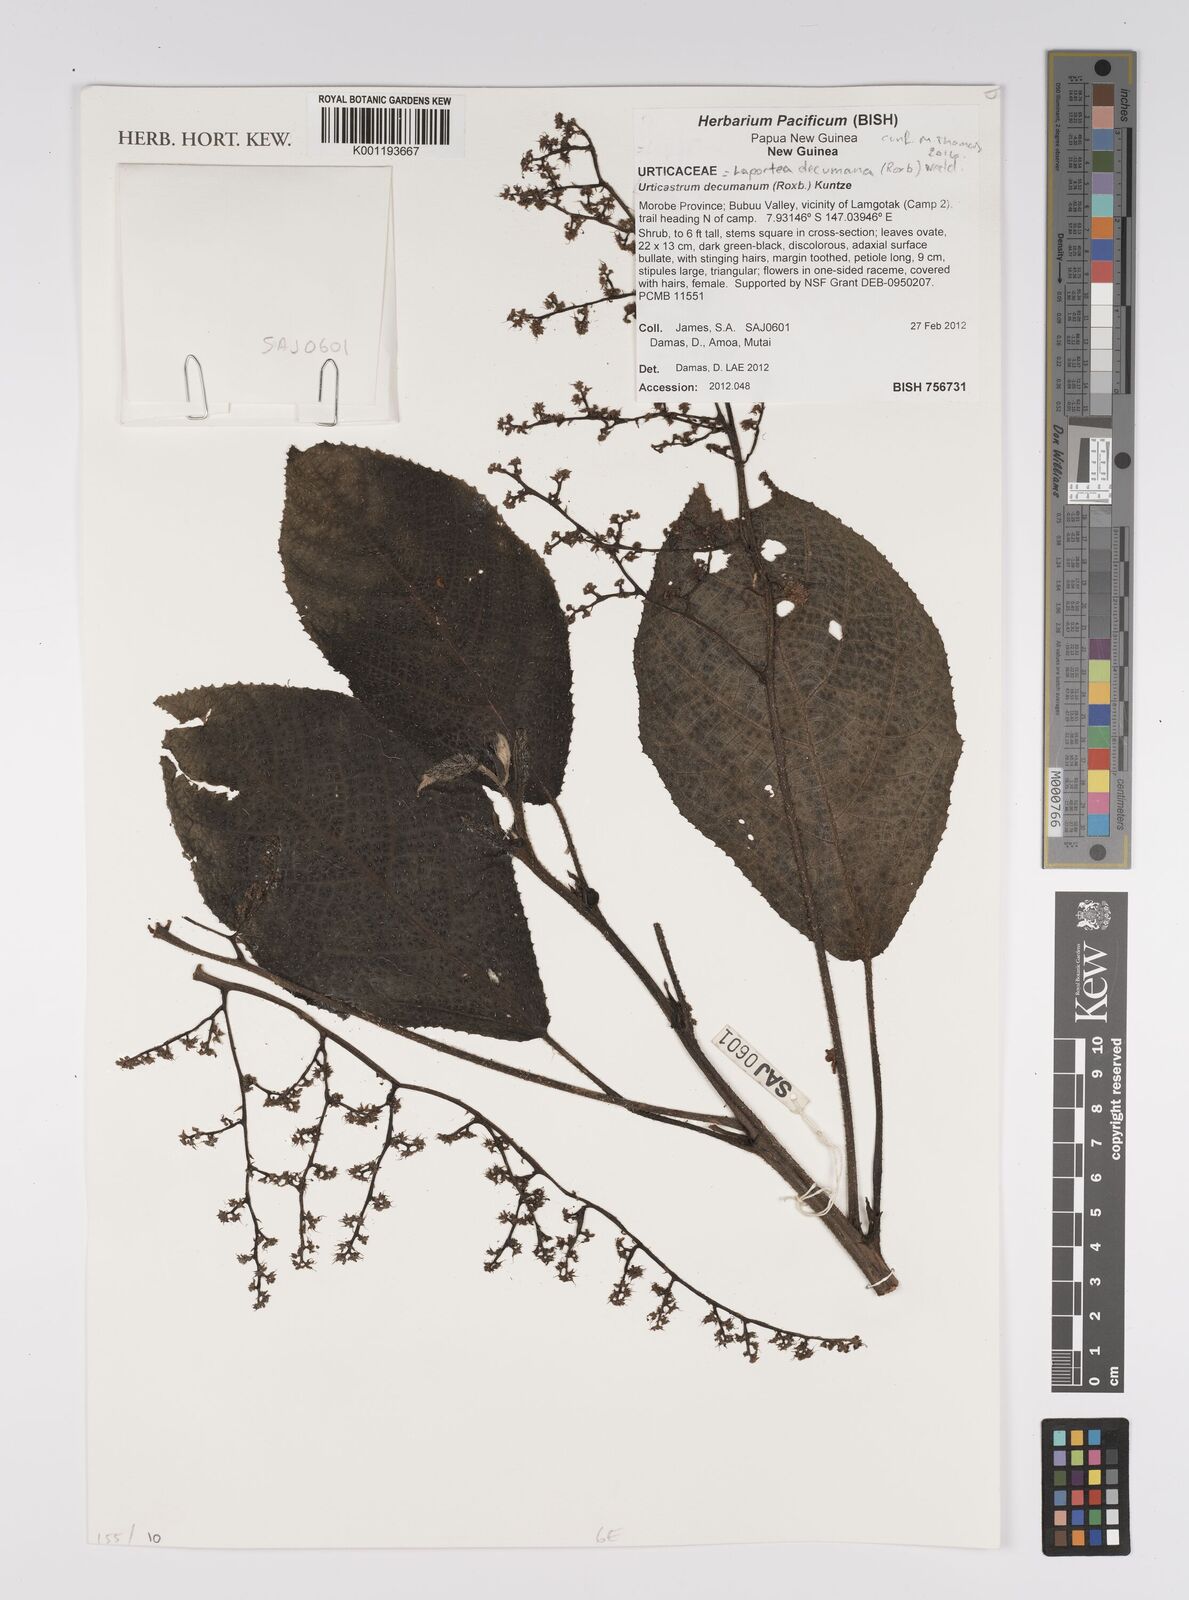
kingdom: Plantae
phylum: Tracheophyta
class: Magnoliopsida
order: Rosales
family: Urticaceae
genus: Laportea
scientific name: Laportea decumana
